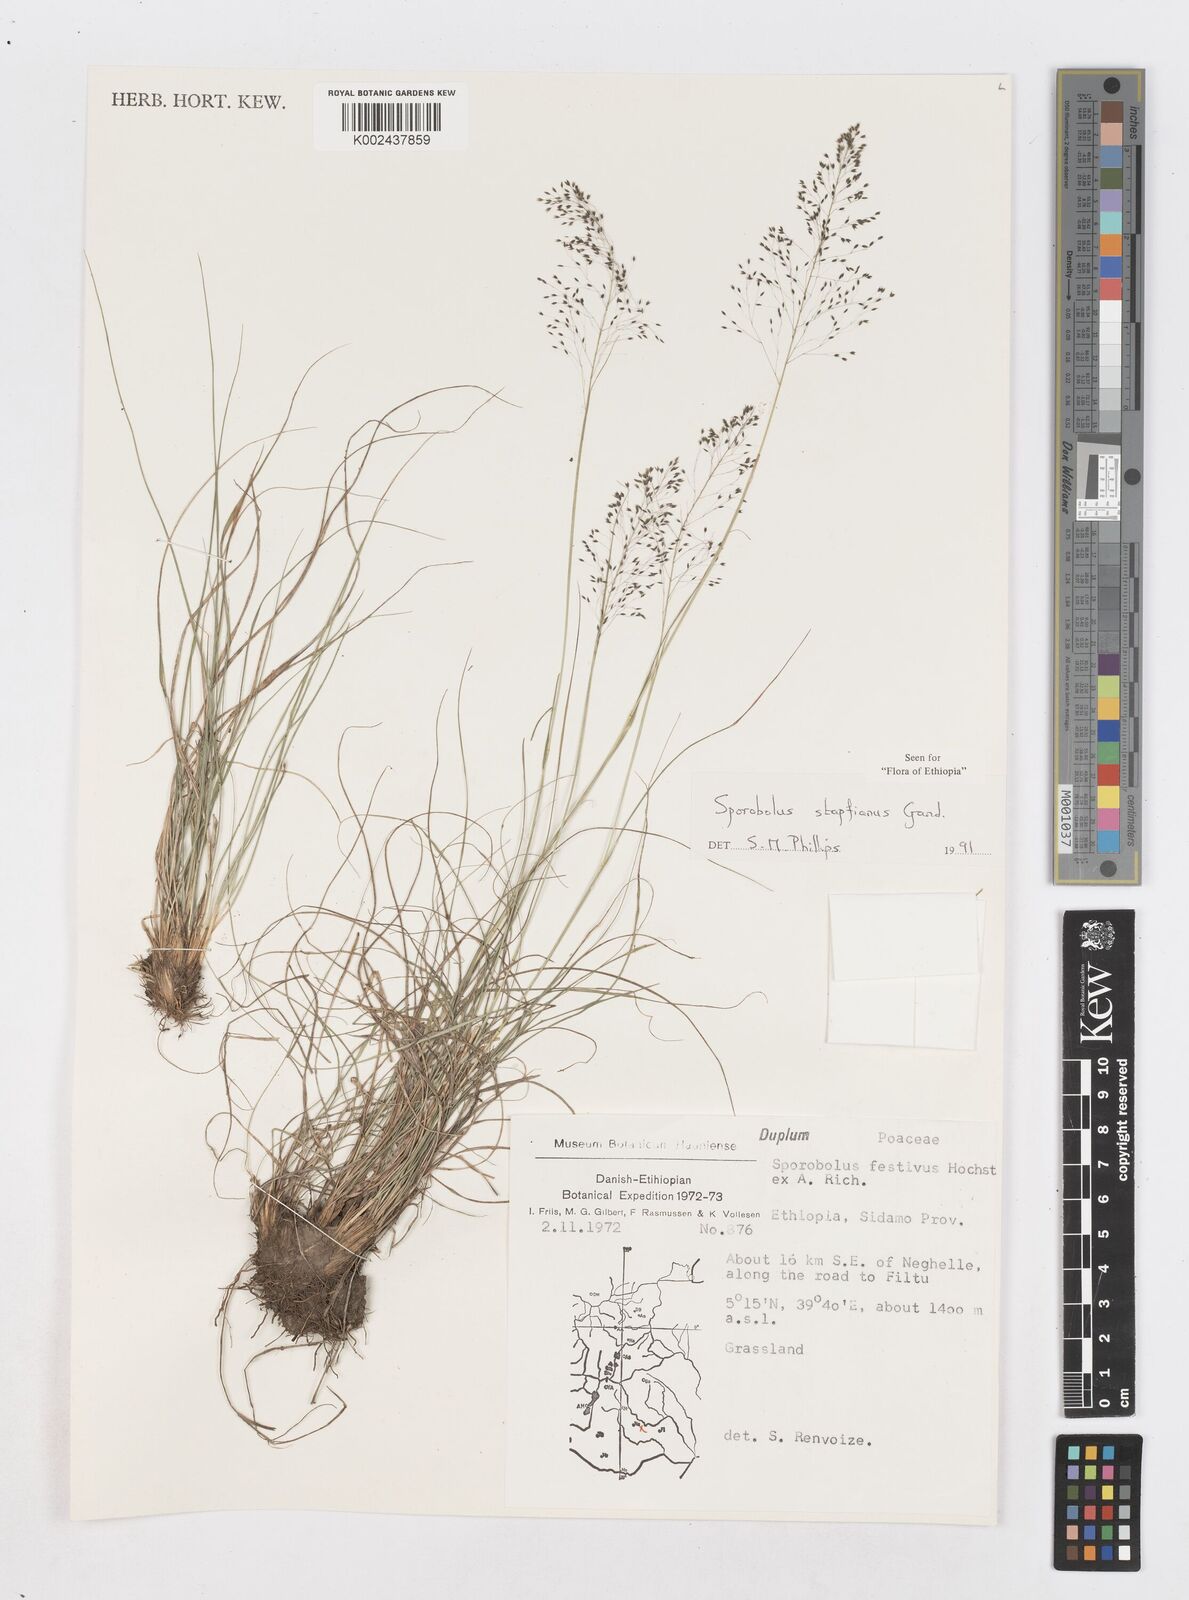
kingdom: Plantae
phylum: Tracheophyta
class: Liliopsida
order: Poales
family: Poaceae
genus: Sporobolus
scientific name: Sporobolus stapfianus
